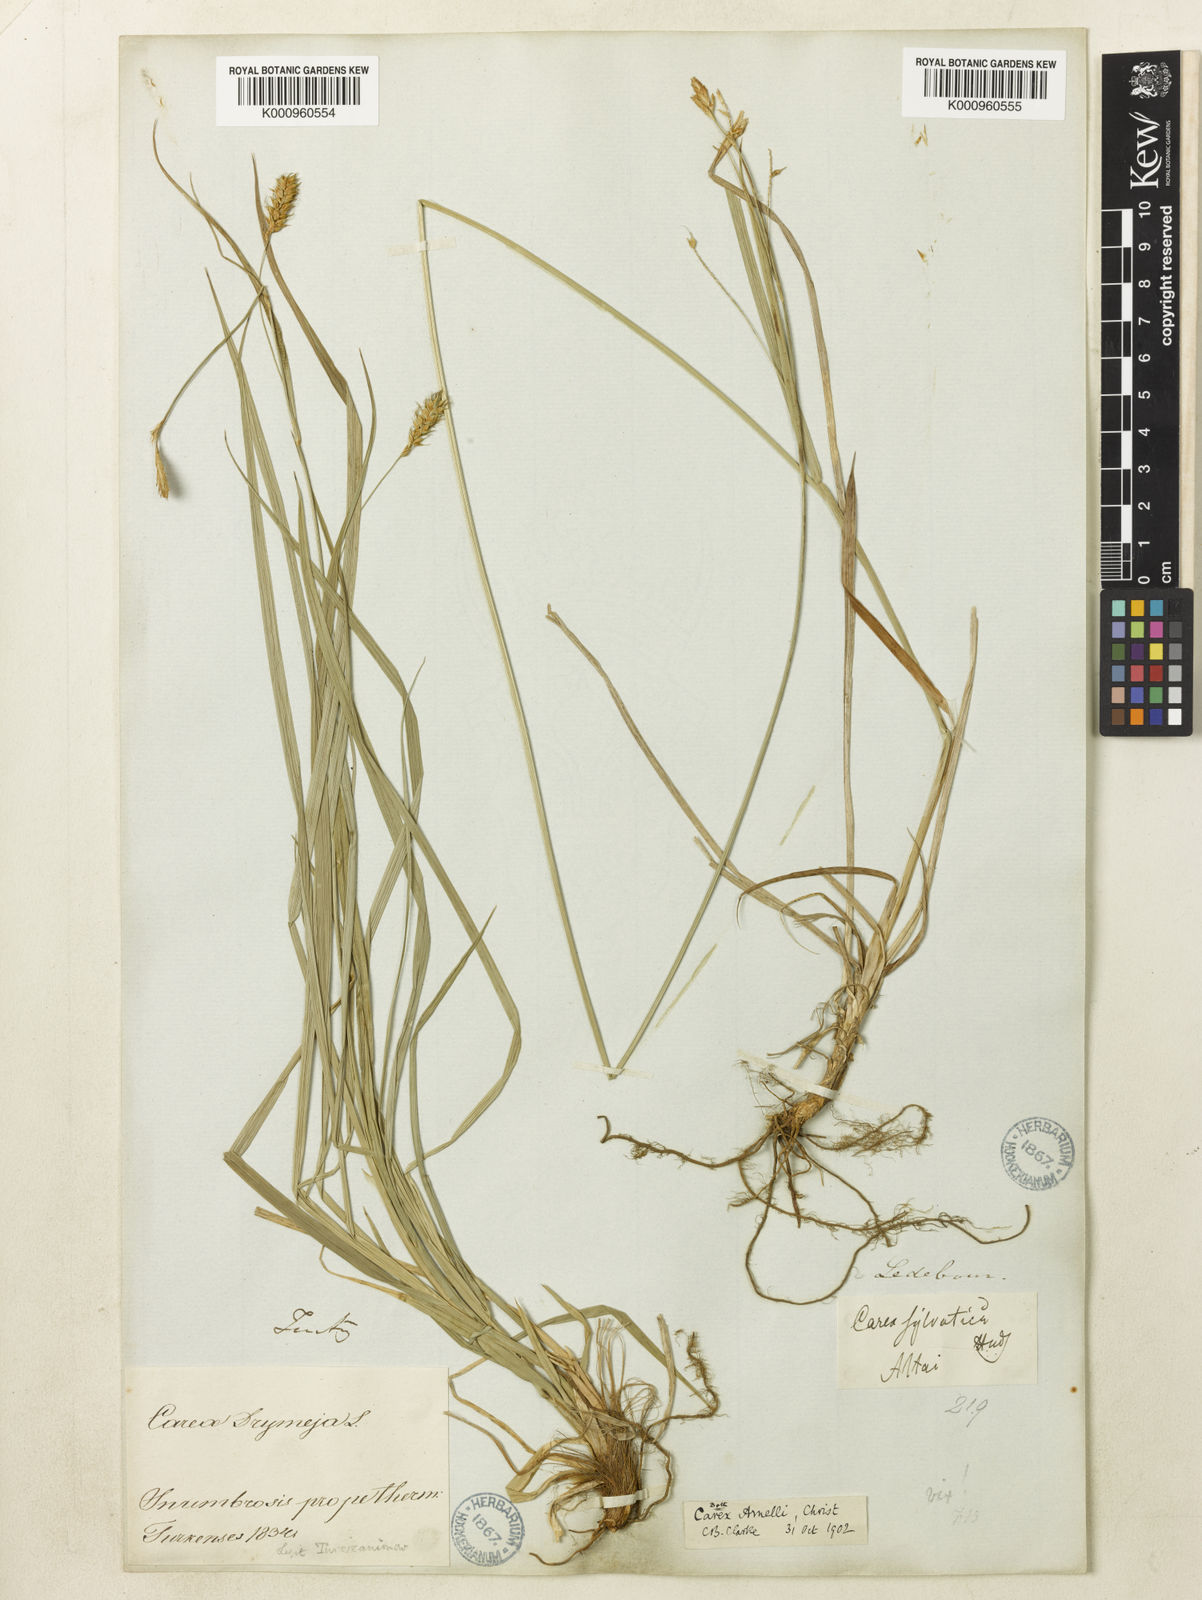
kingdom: Plantae
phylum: Tracheophyta
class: Liliopsida
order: Poales
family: Cyperaceae
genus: Carex
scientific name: Carex arnellii
